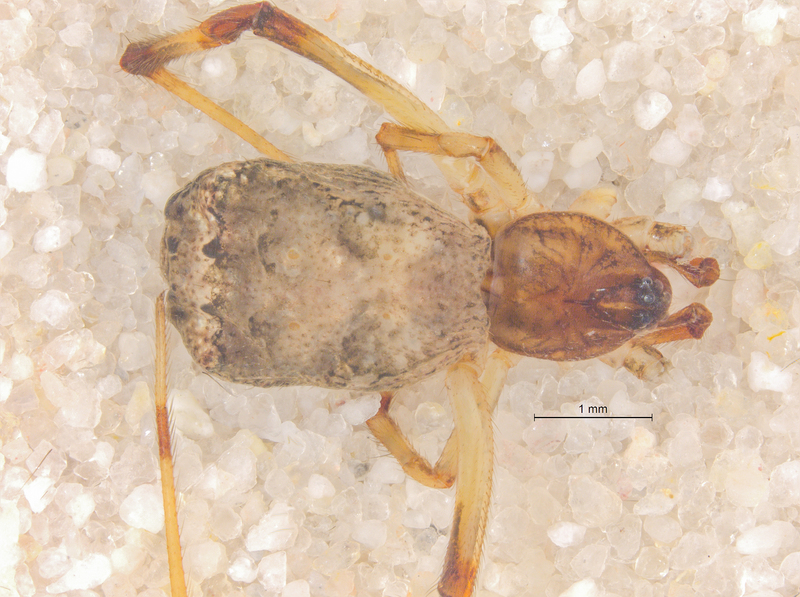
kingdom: Animalia
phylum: Arthropoda
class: Arachnida
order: Araneae
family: Theridiidae
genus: Episinus
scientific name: Episinus angulatus
